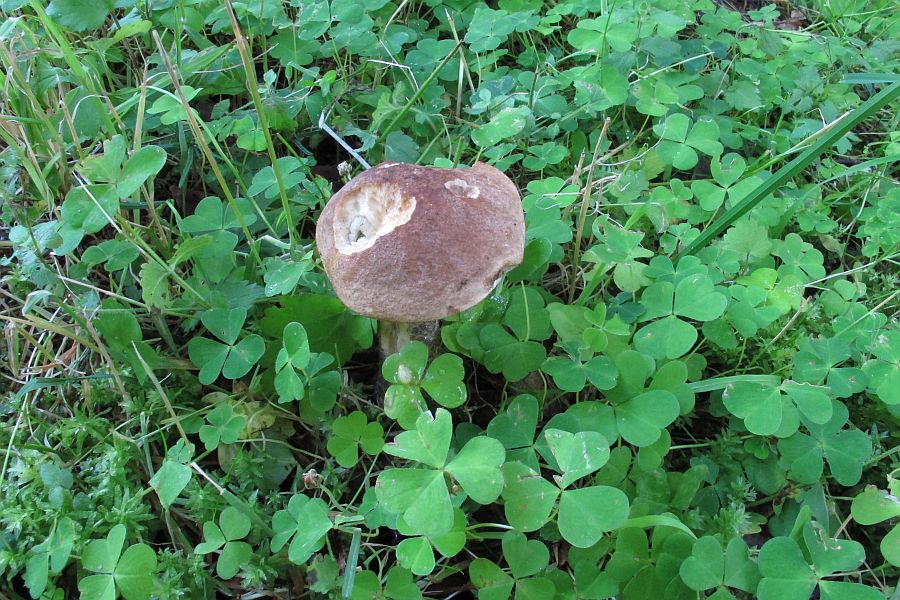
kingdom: Fungi
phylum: Basidiomycota
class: Agaricomycetes
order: Boletales
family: Boletaceae
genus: Leccinum
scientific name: Leccinum scabrum
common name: brun skælrørhat
